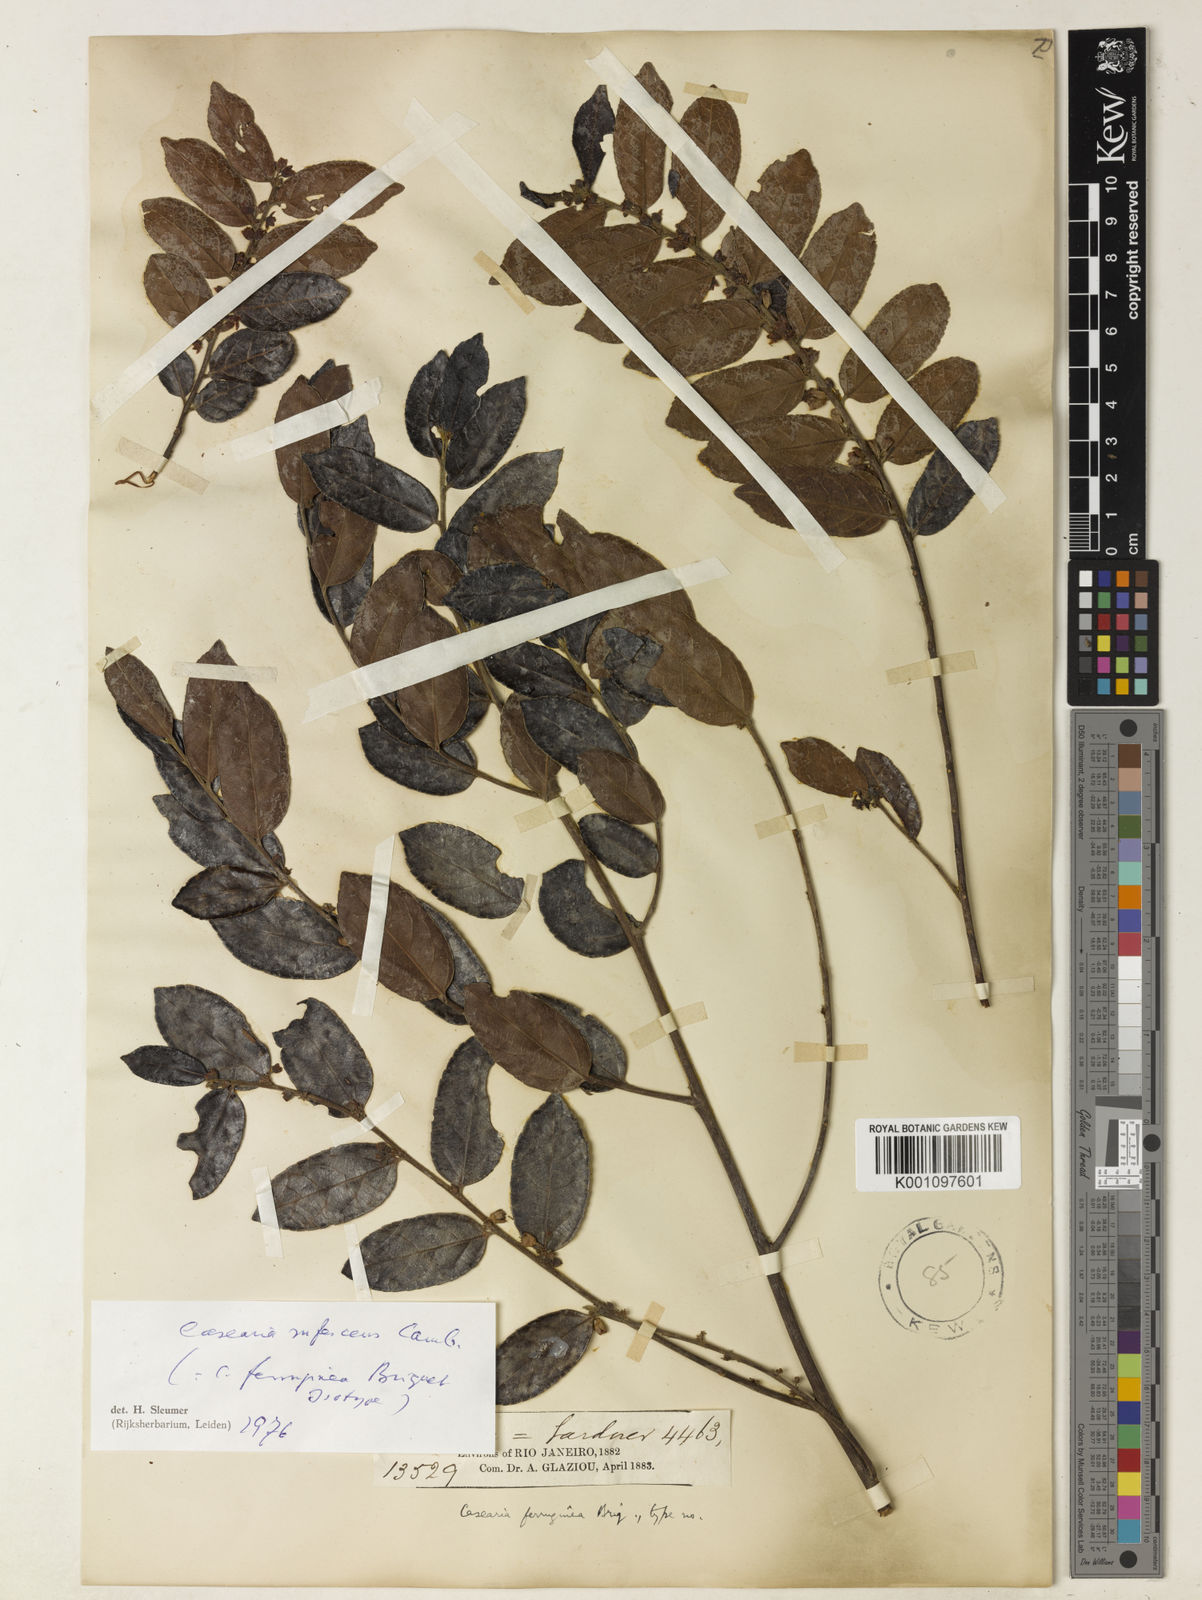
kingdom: Plantae
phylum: Tracheophyta
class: Magnoliopsida
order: Malpighiales
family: Salicaceae
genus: Casearia
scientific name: Casearia rufescens
